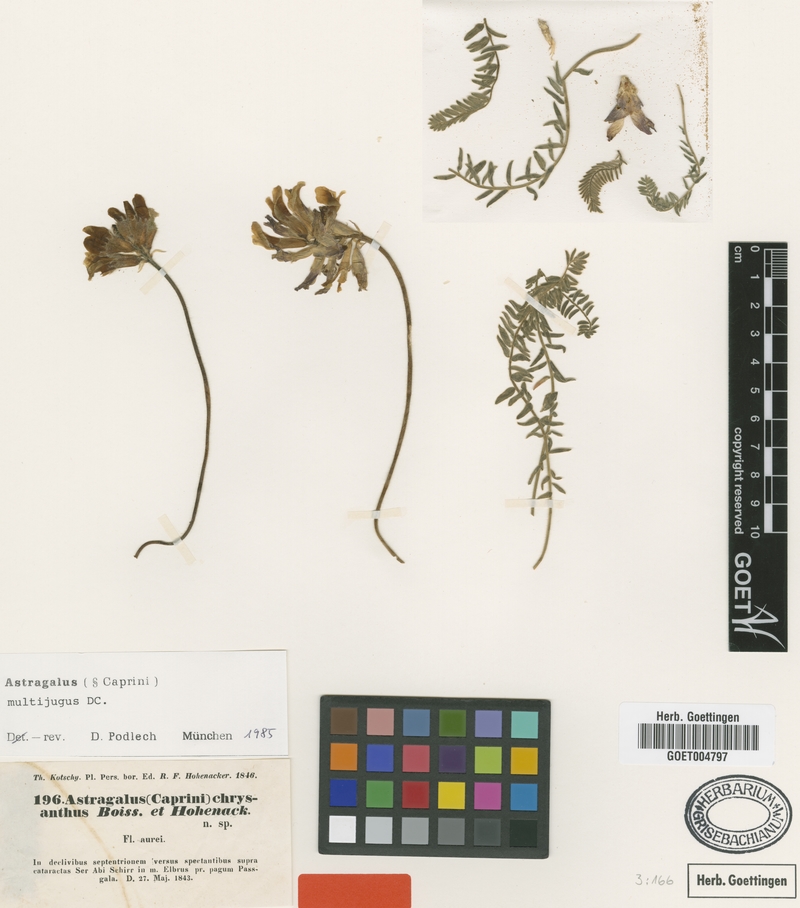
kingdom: Plantae
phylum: Tracheophyta
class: Magnoliopsida
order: Fabales
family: Fabaceae
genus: Astragalus
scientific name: Astragalus multijugus
